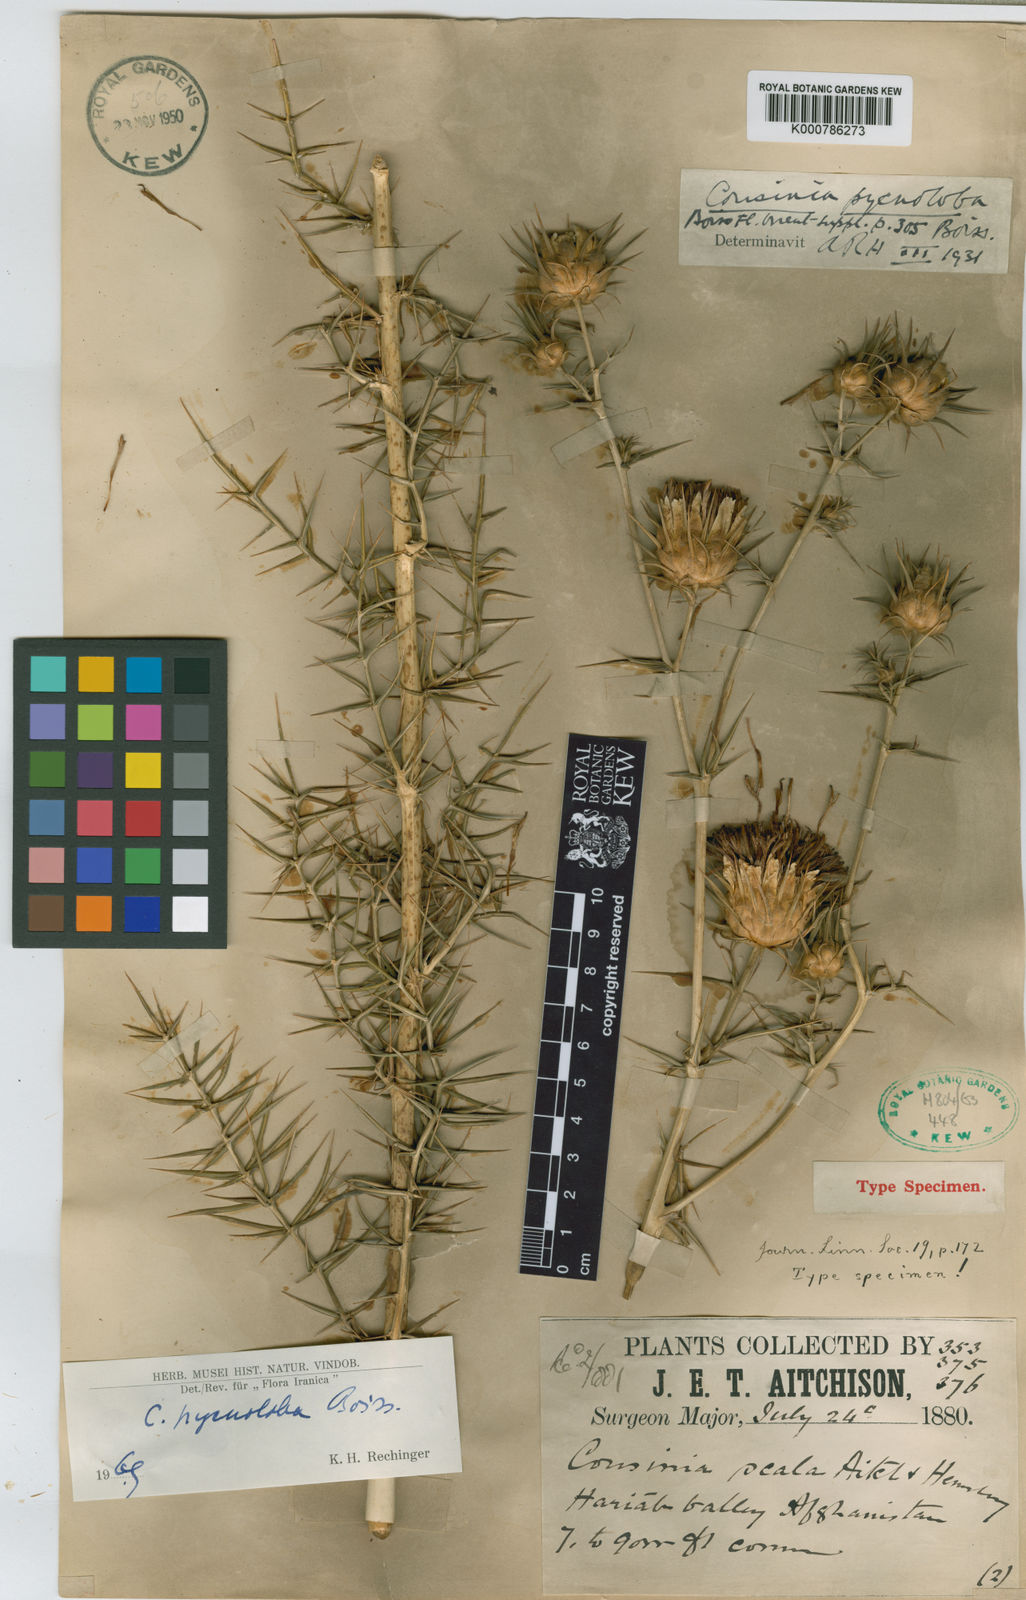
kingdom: Plantae
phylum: Tracheophyta
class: Magnoliopsida
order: Asterales
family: Asteraceae
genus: Cousinia
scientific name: Cousinia pycnoloba
